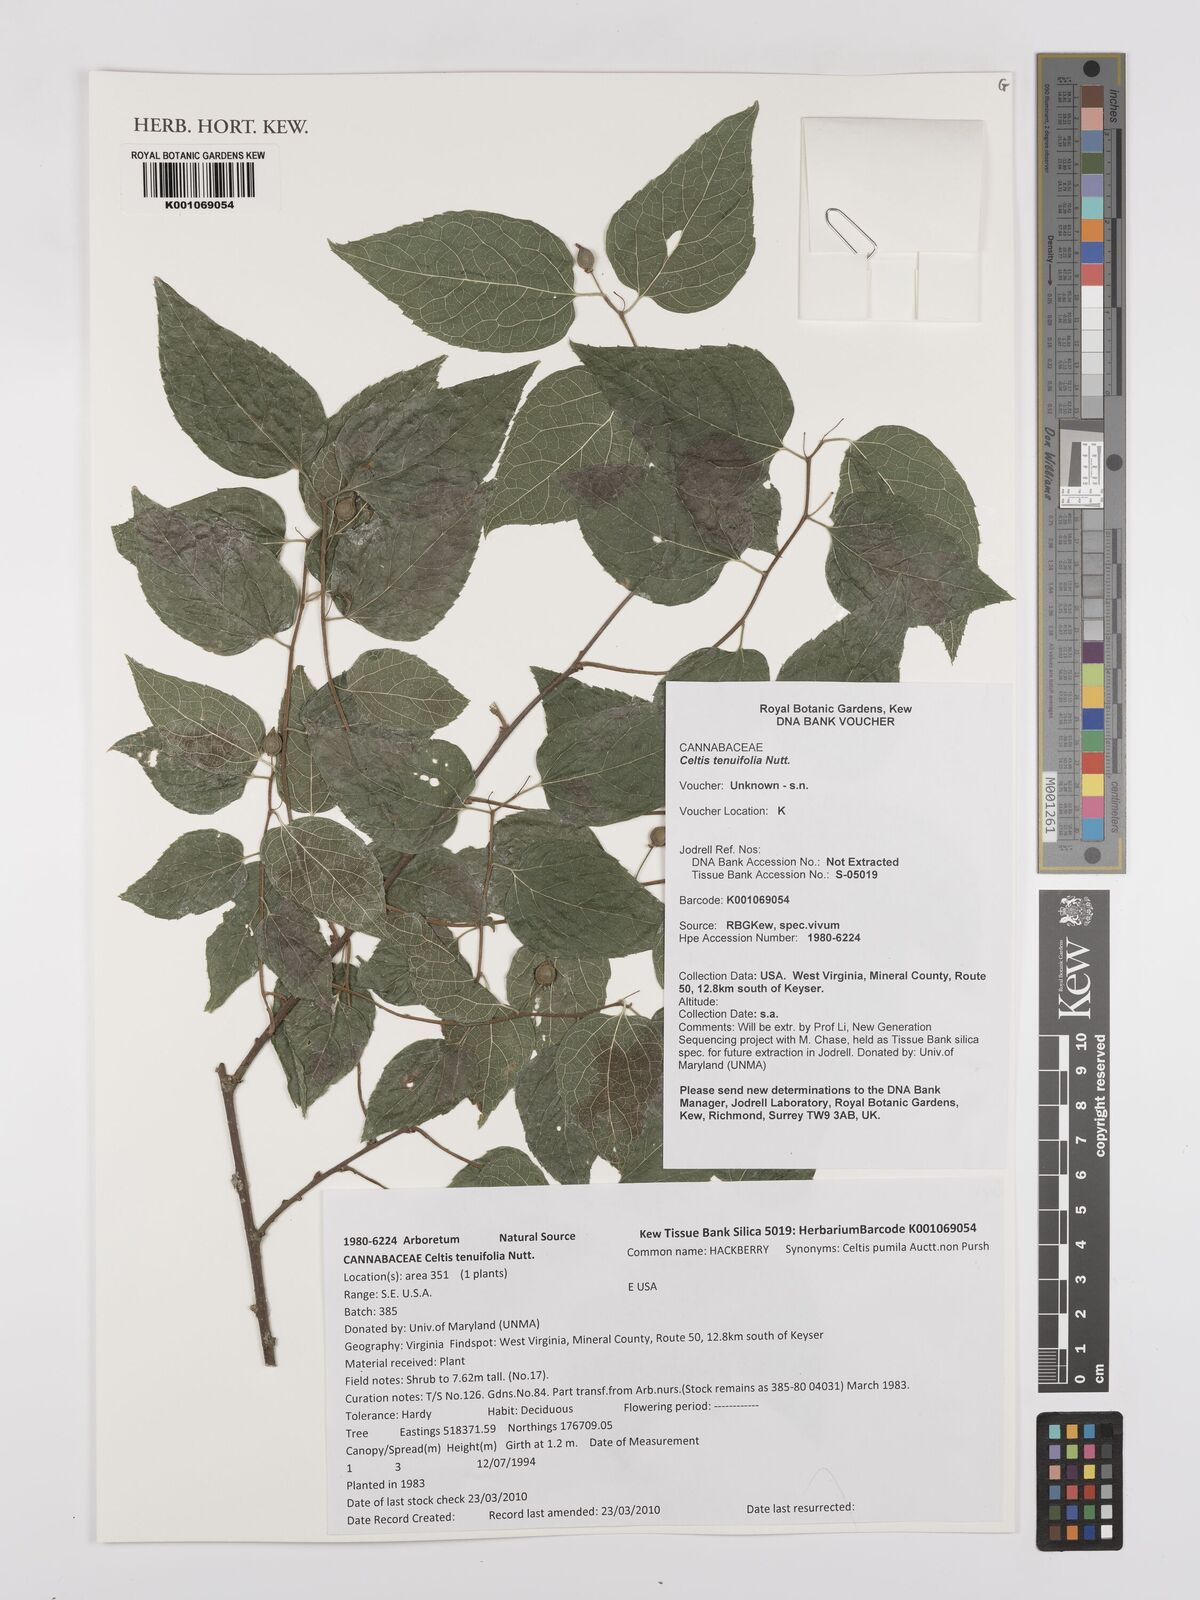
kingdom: Plantae
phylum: Tracheophyta
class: Magnoliopsida
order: Rosales
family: Cannabaceae
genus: Celtis
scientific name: Celtis tenuifolia
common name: Georgia hackberry
